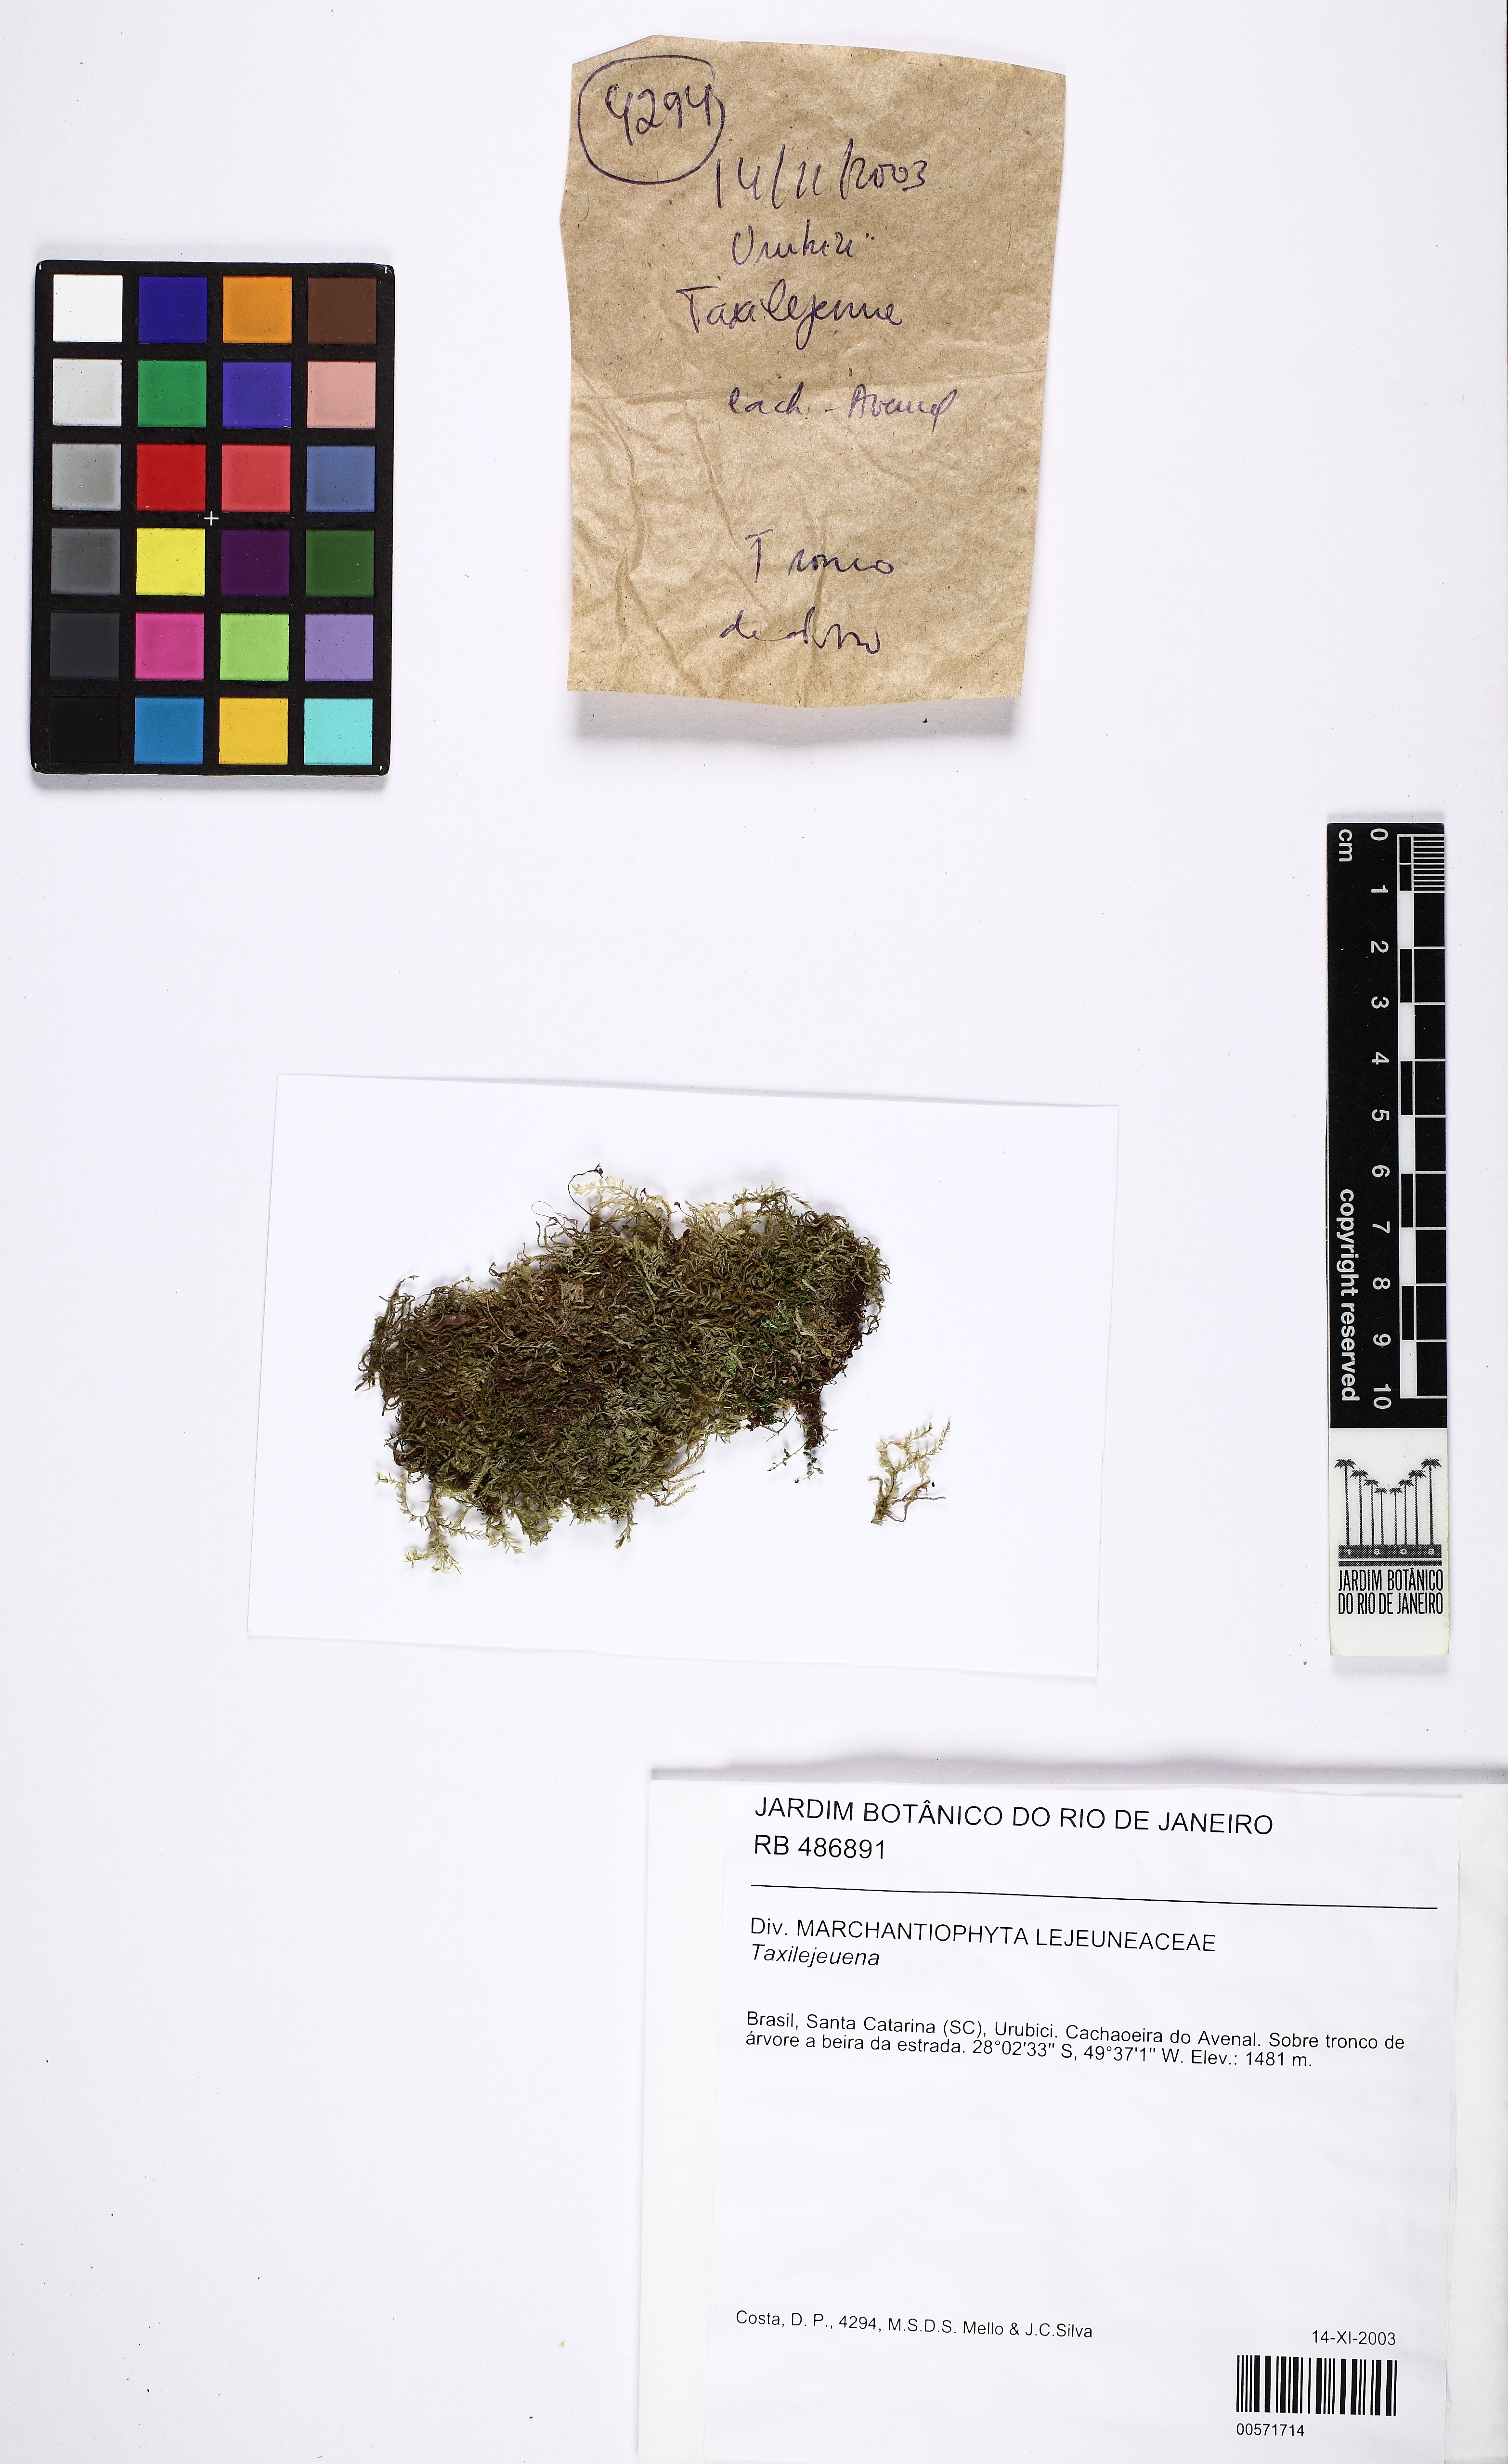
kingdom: Plantae
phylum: Marchantiophyta
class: Jungermanniopsida
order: Porellales
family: Lejeuneaceae
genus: Taxilejeunea
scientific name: Taxilejeunea
